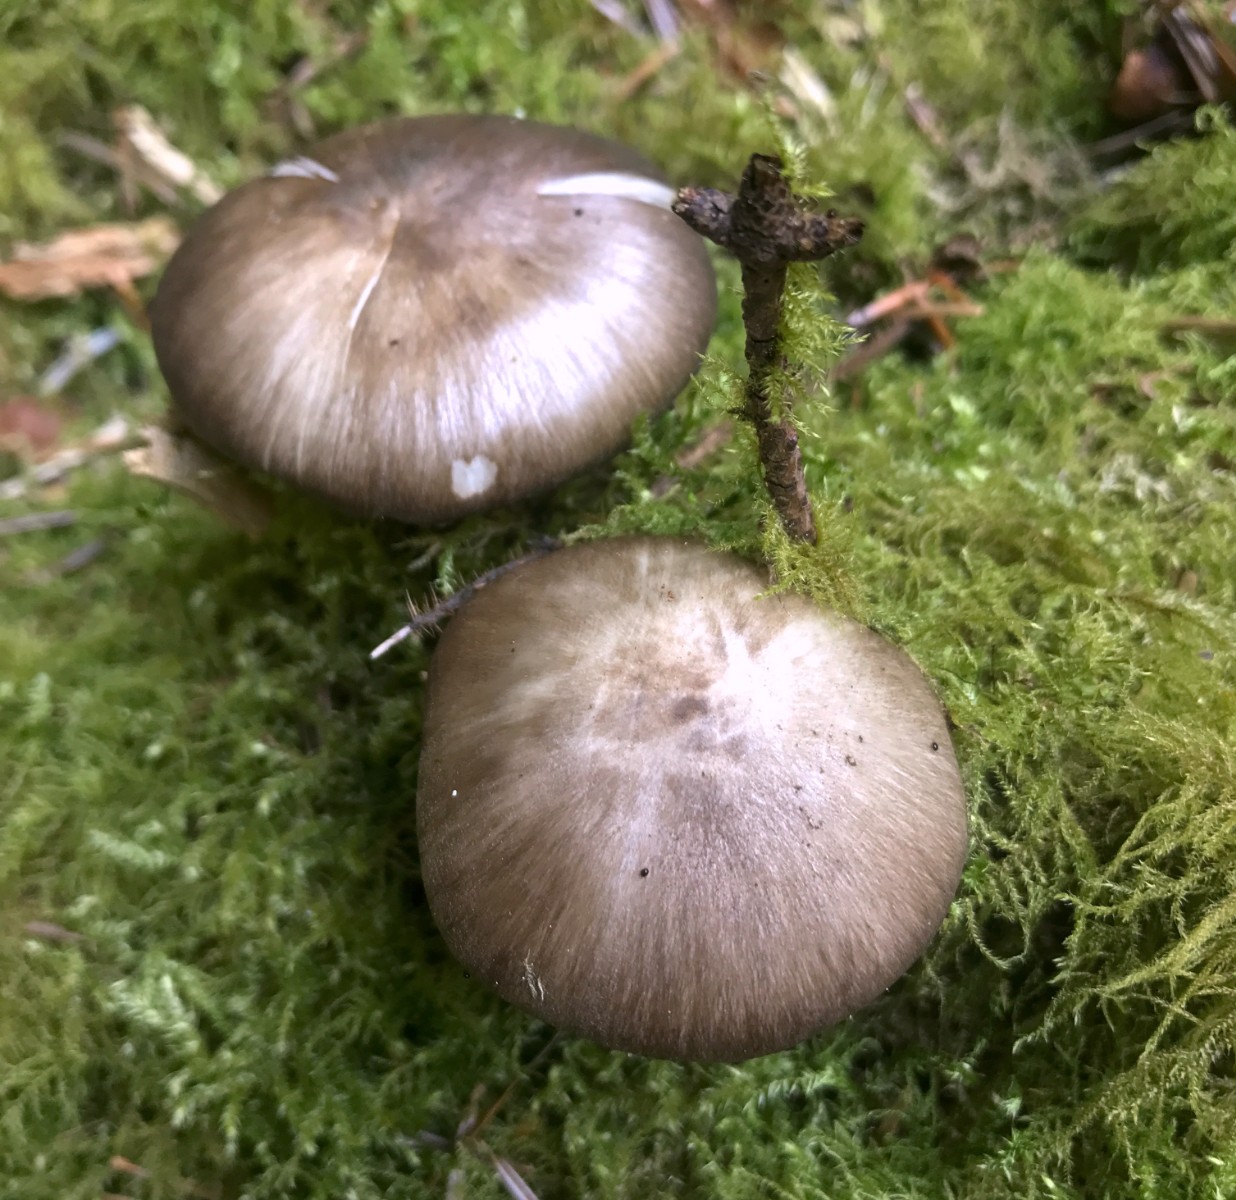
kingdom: Fungi
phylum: Basidiomycota
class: Agaricomycetes
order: Agaricales
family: Pluteaceae
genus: Pluteus
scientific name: Pluteus cervinus
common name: sodfarvet skærmhat
